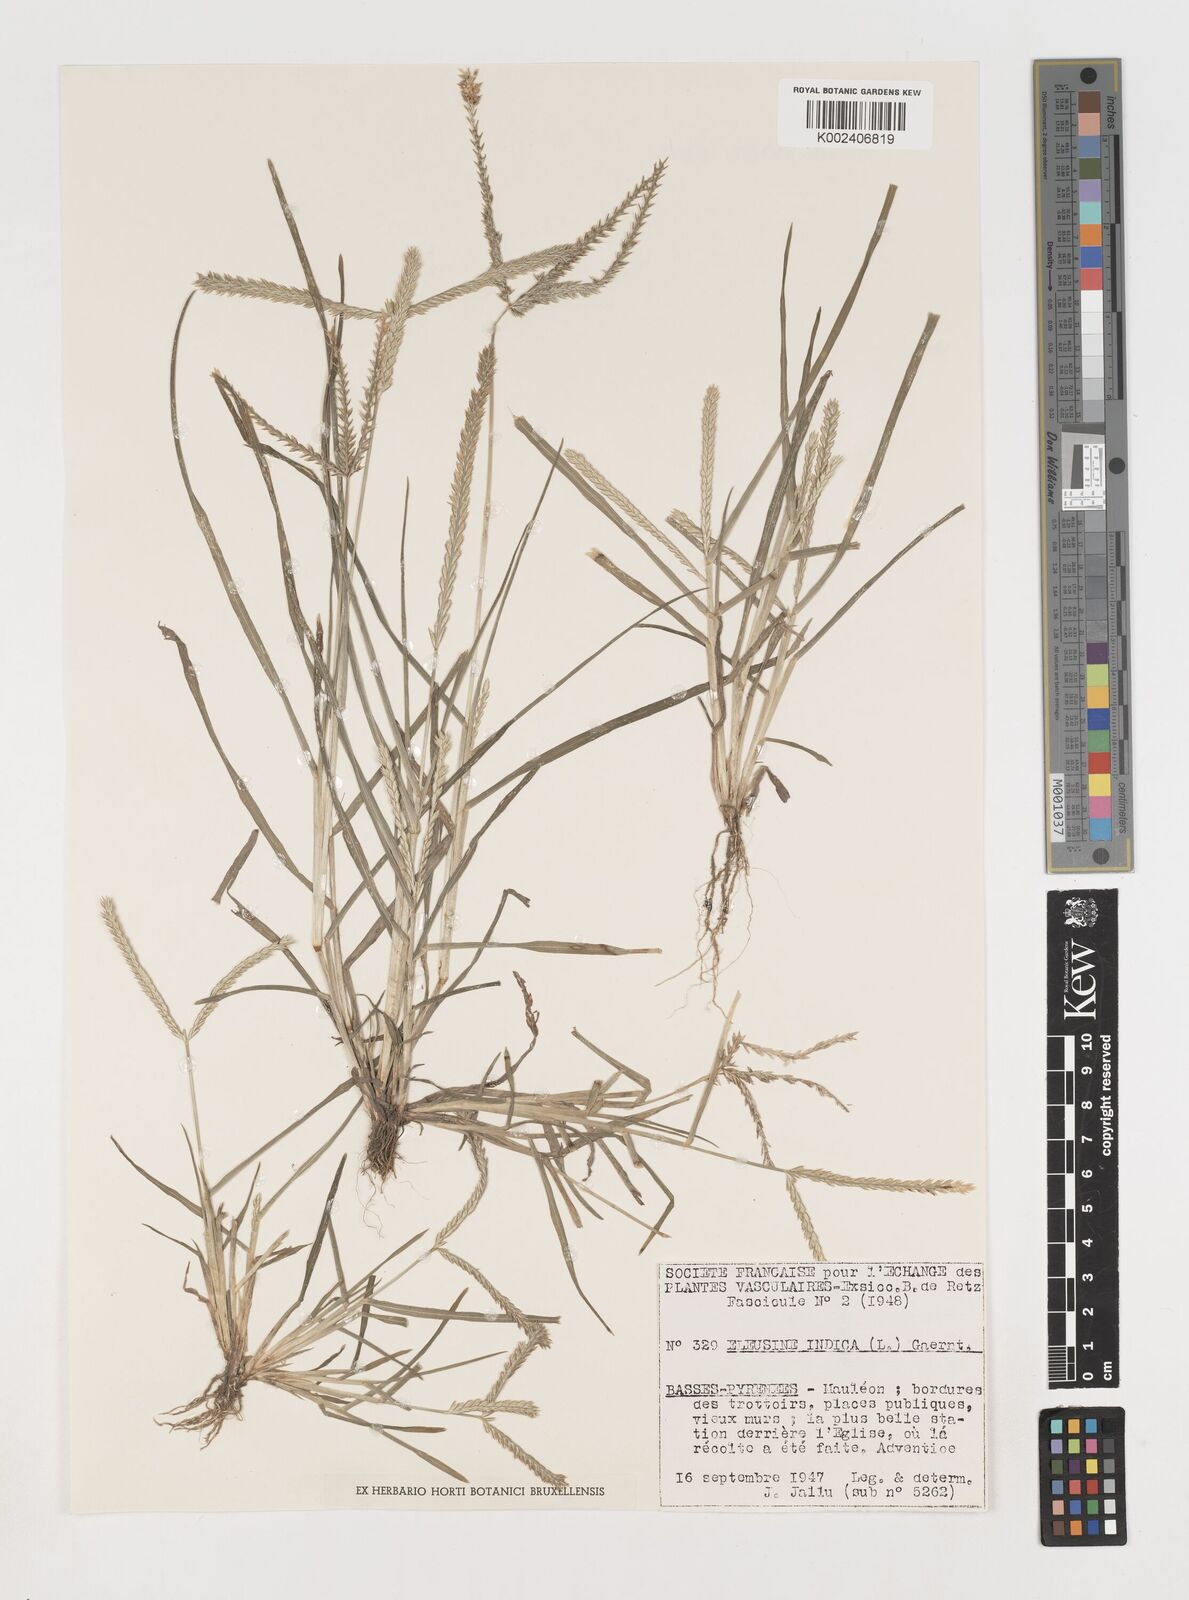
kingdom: Plantae
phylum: Tracheophyta
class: Liliopsida
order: Poales
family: Poaceae
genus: Eleusine
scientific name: Eleusine indica
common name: Yard-grass
